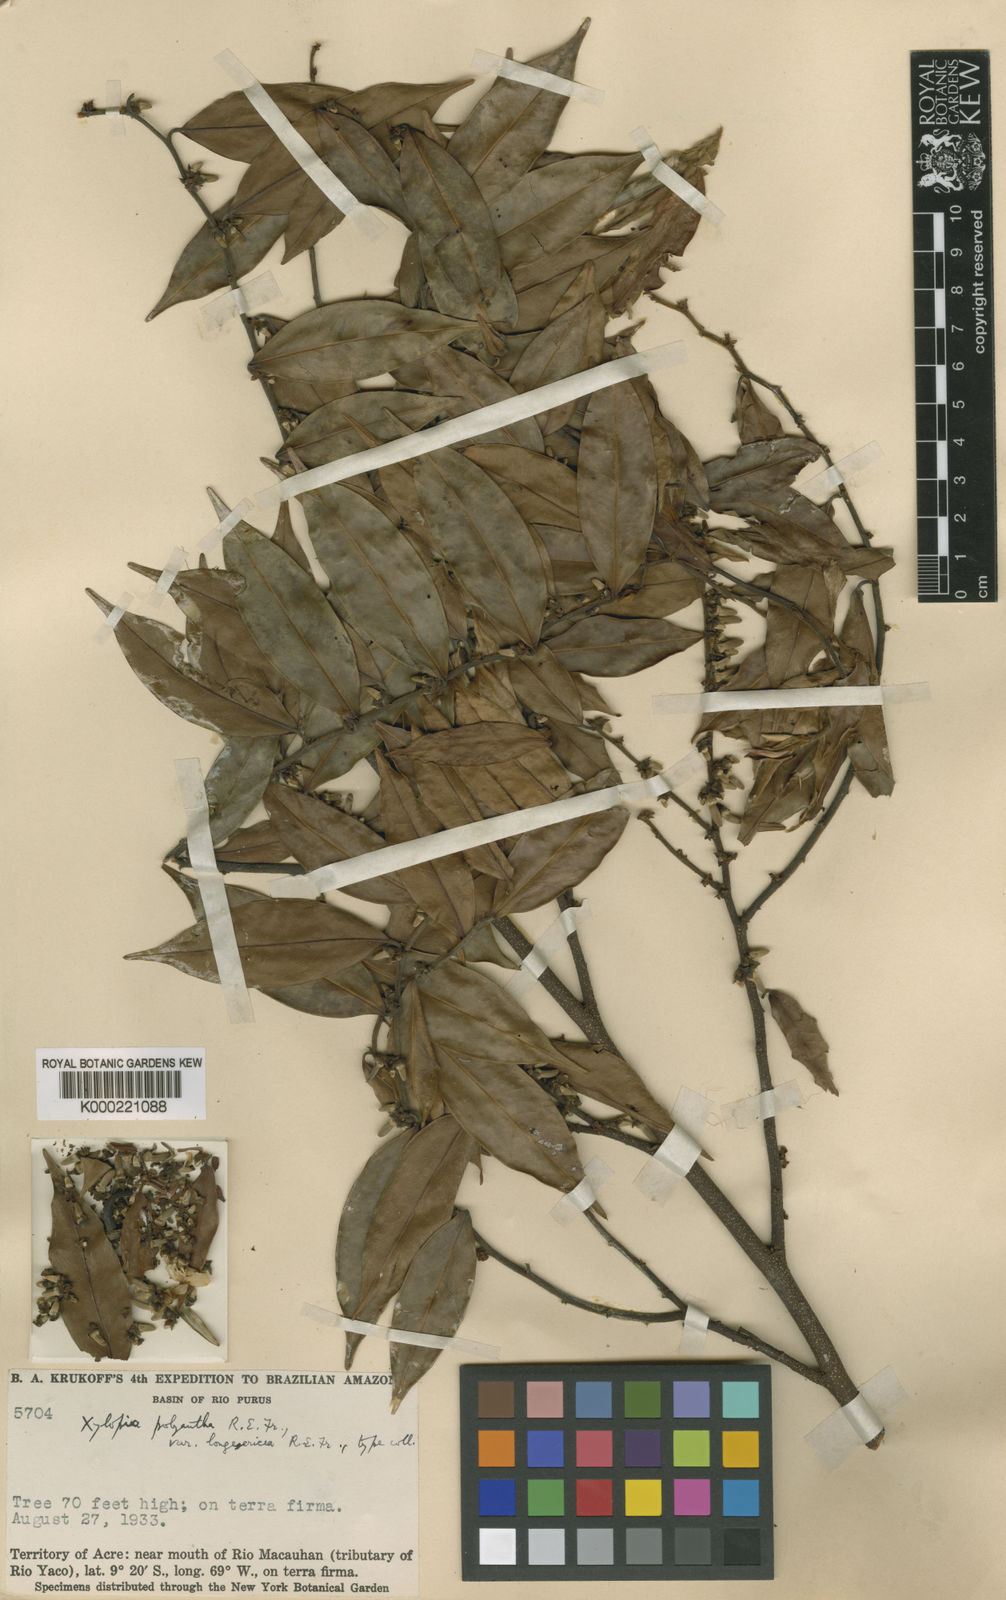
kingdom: Plantae
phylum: Tracheophyta
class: Magnoliopsida
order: Magnoliales
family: Annonaceae
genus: Xylopia
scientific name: Xylopia polyantha
